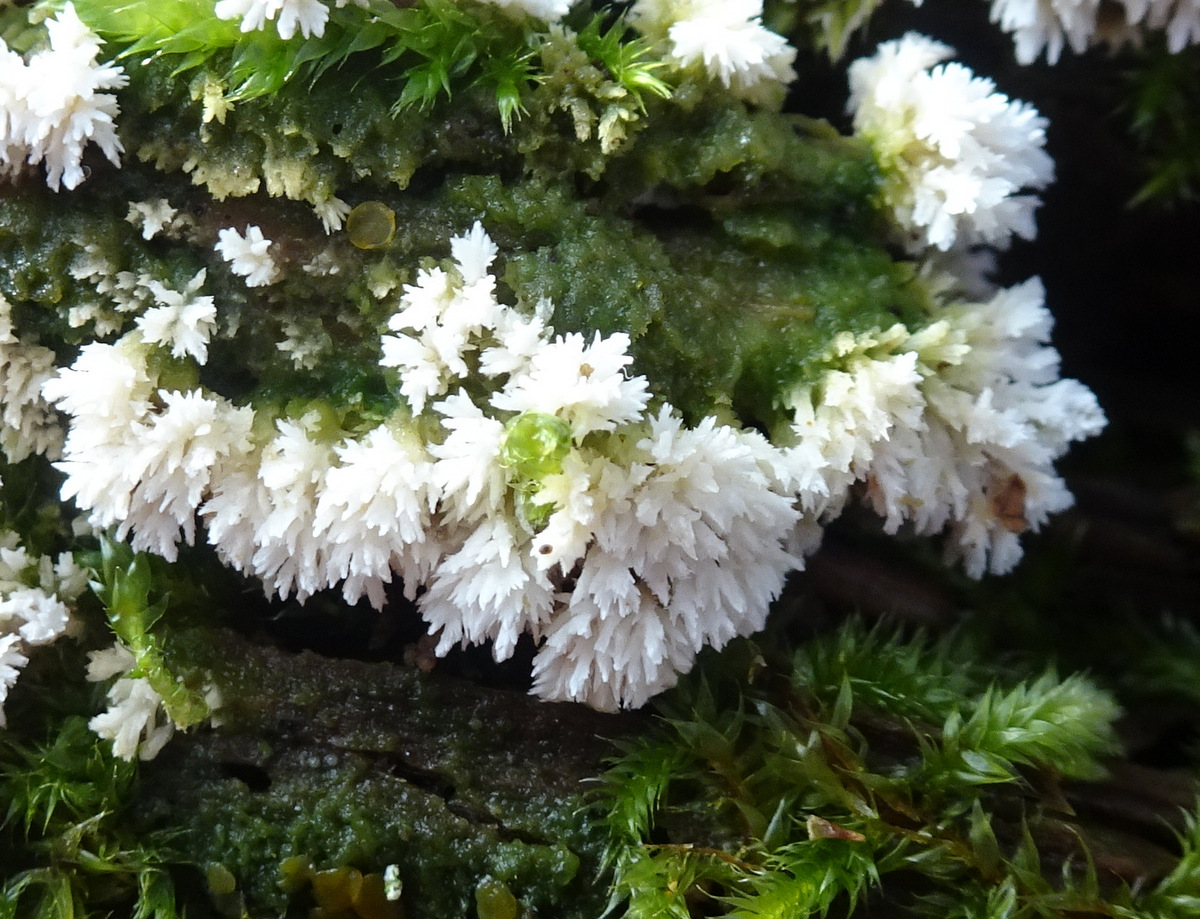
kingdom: Fungi
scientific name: Fungi
